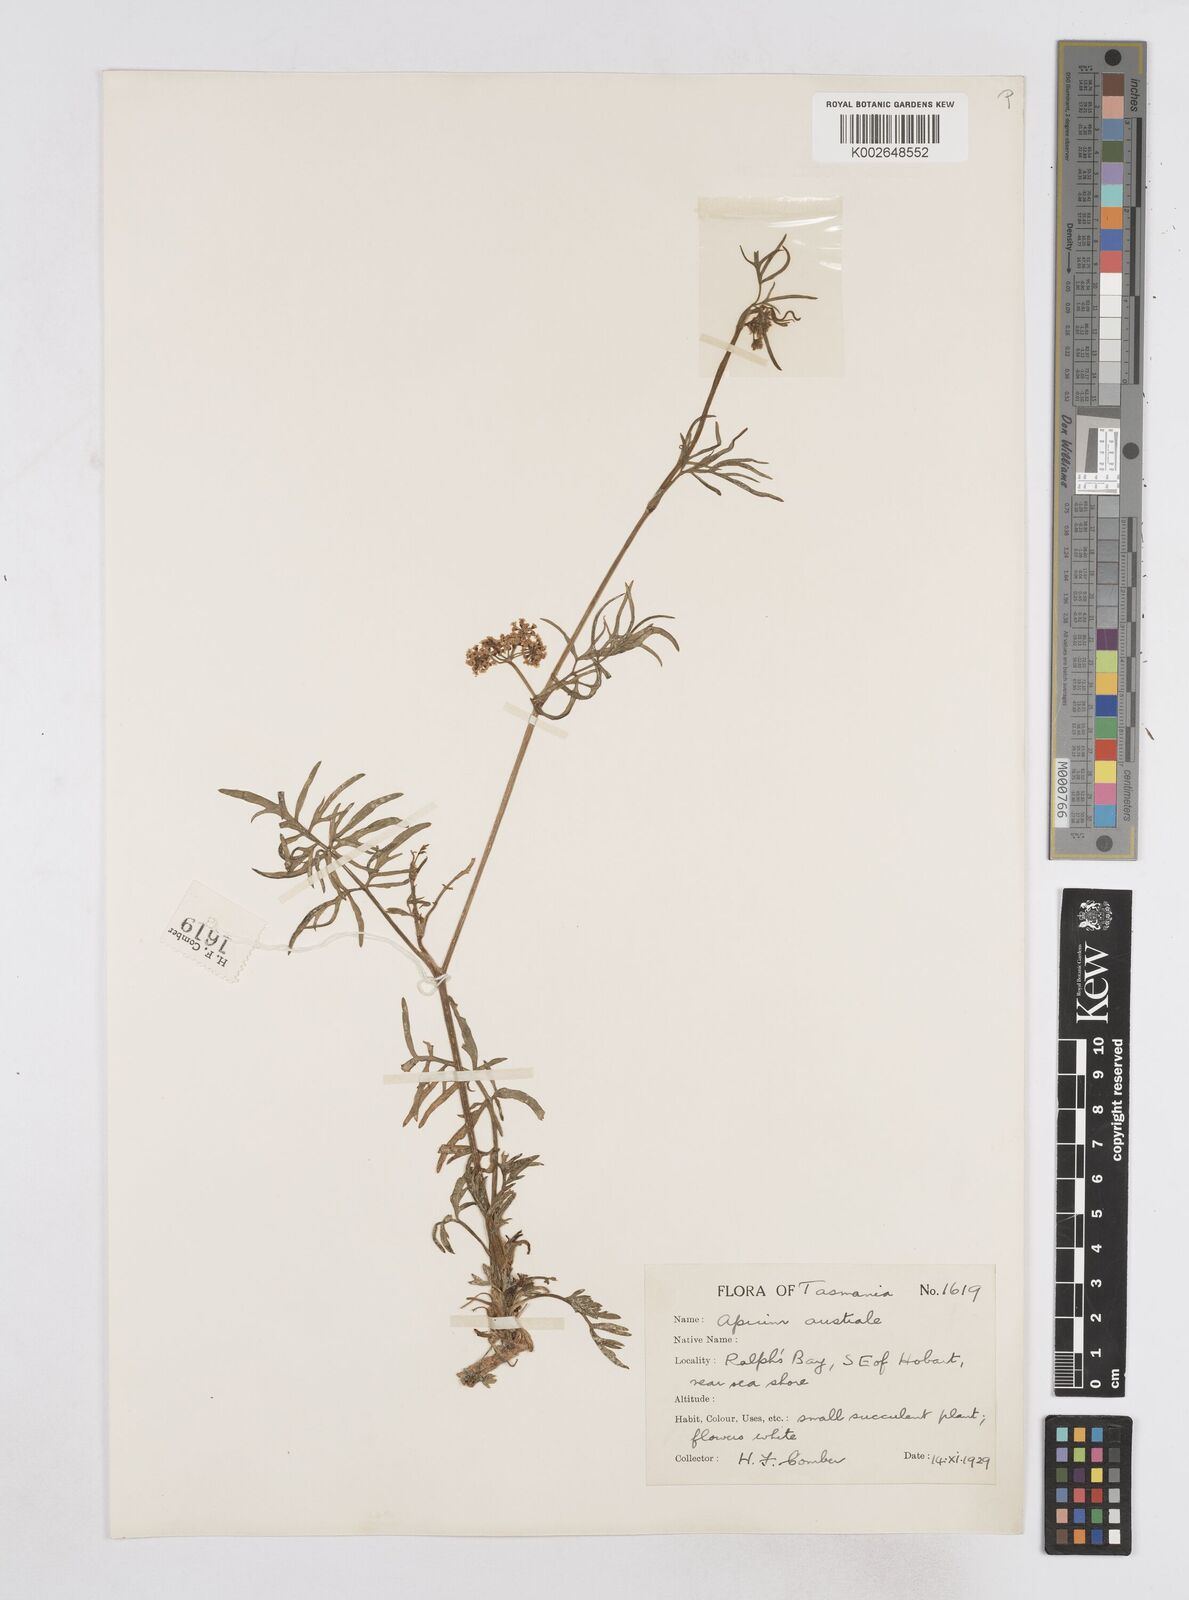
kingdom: Plantae
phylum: Tracheophyta
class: Magnoliopsida
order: Apiales
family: Apiaceae
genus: Apium
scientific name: Apium prostratum
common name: Prostrate marshwort
